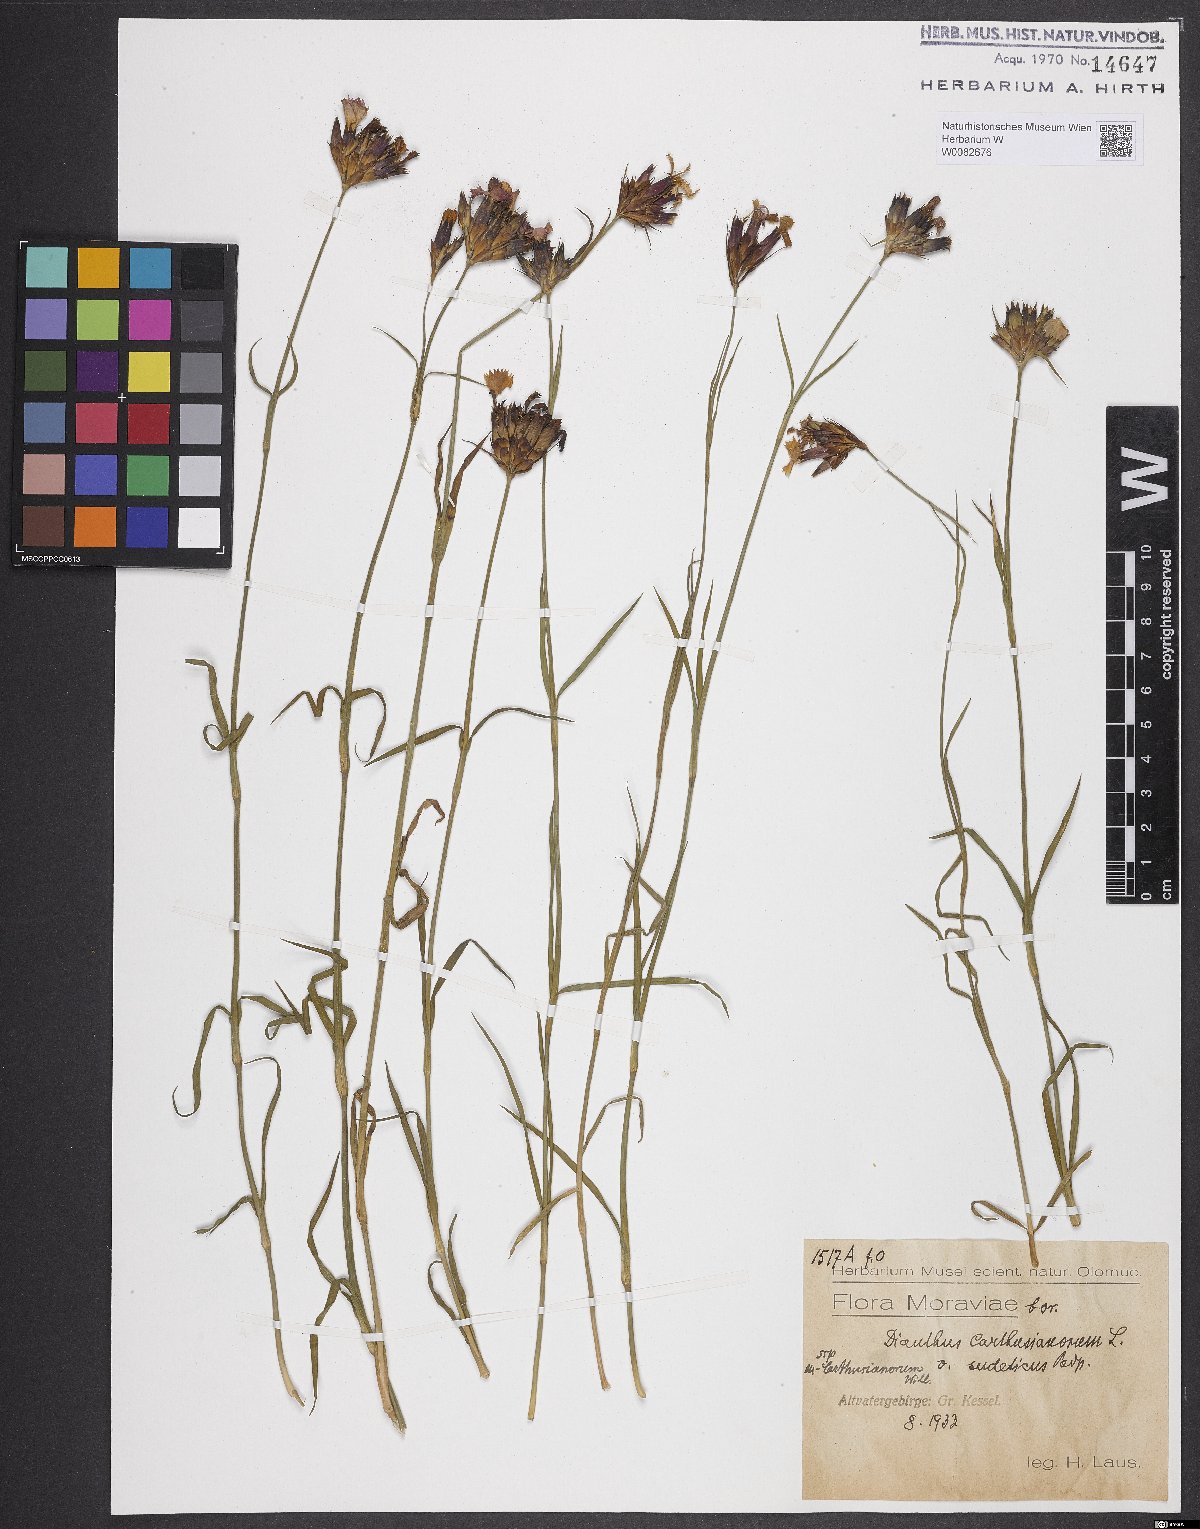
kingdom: Plantae
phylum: Tracheophyta
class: Magnoliopsida
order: Caryophyllales
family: Caryophyllaceae
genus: Dianthus
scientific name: Dianthus carthusianorum
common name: Carthusian pink
